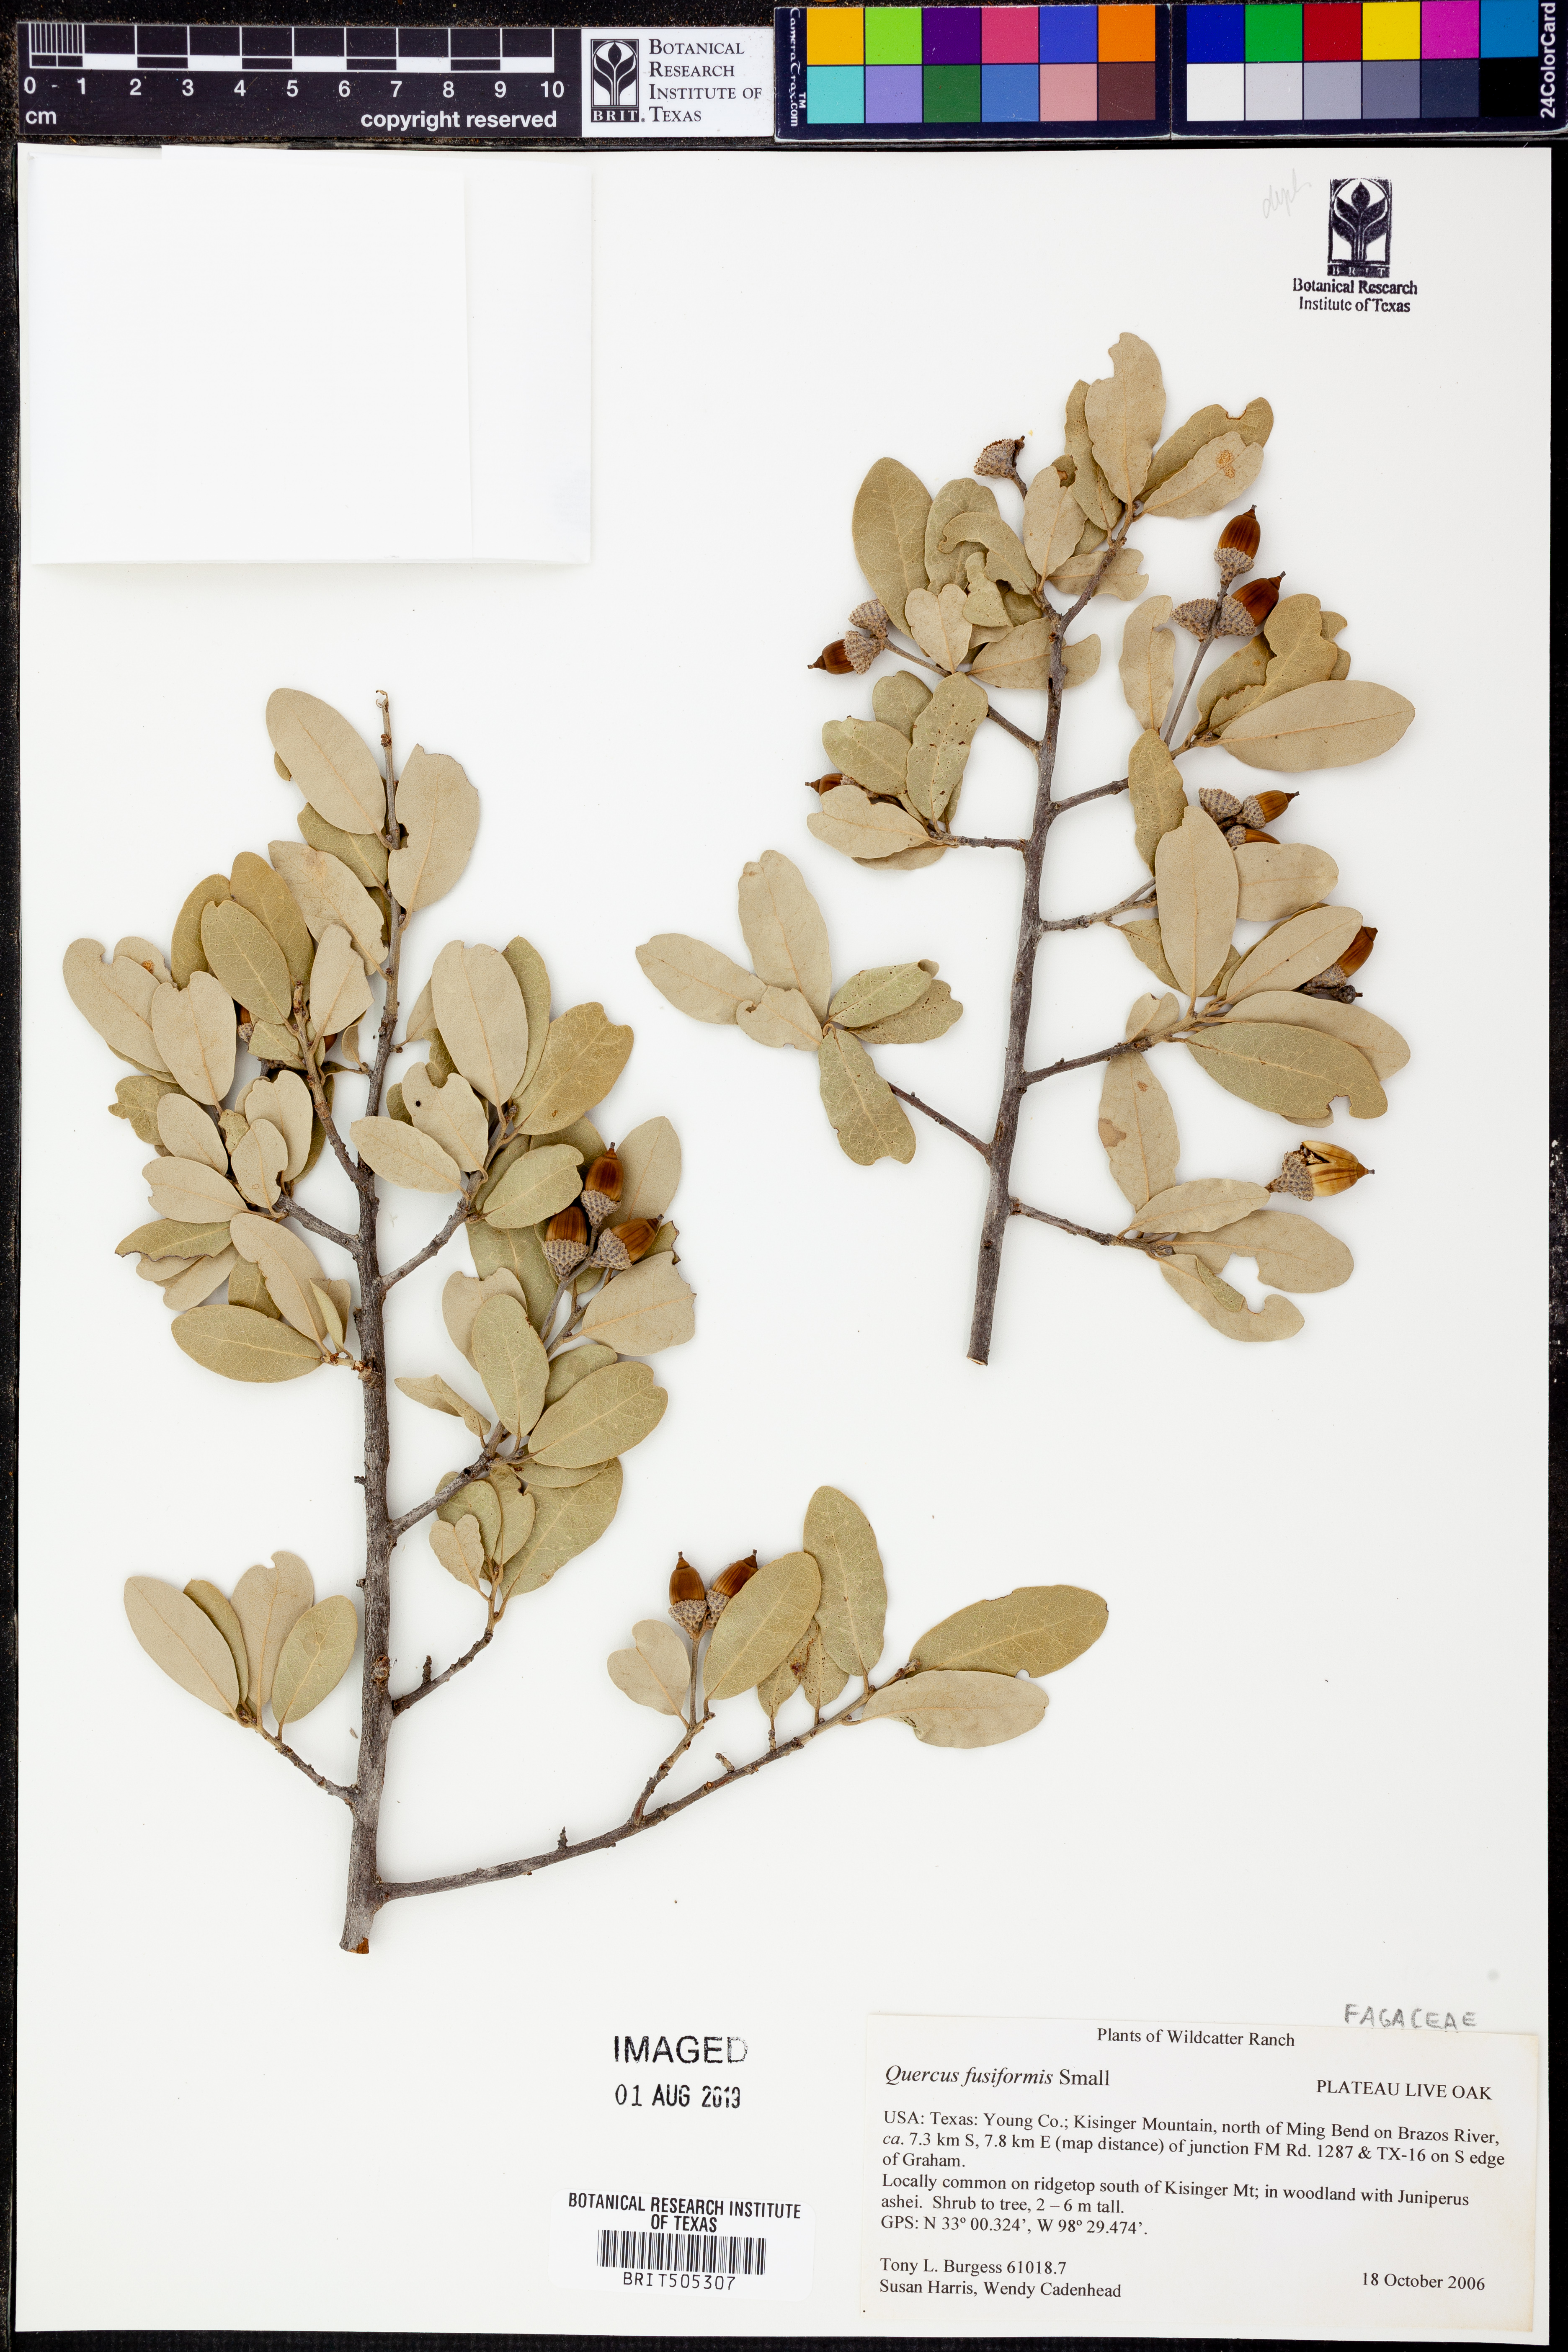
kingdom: Plantae
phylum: Tracheophyta
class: Magnoliopsida
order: Fagales
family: Fagaceae
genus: Quercus
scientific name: Quercus fusiformis
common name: Texas live oak
